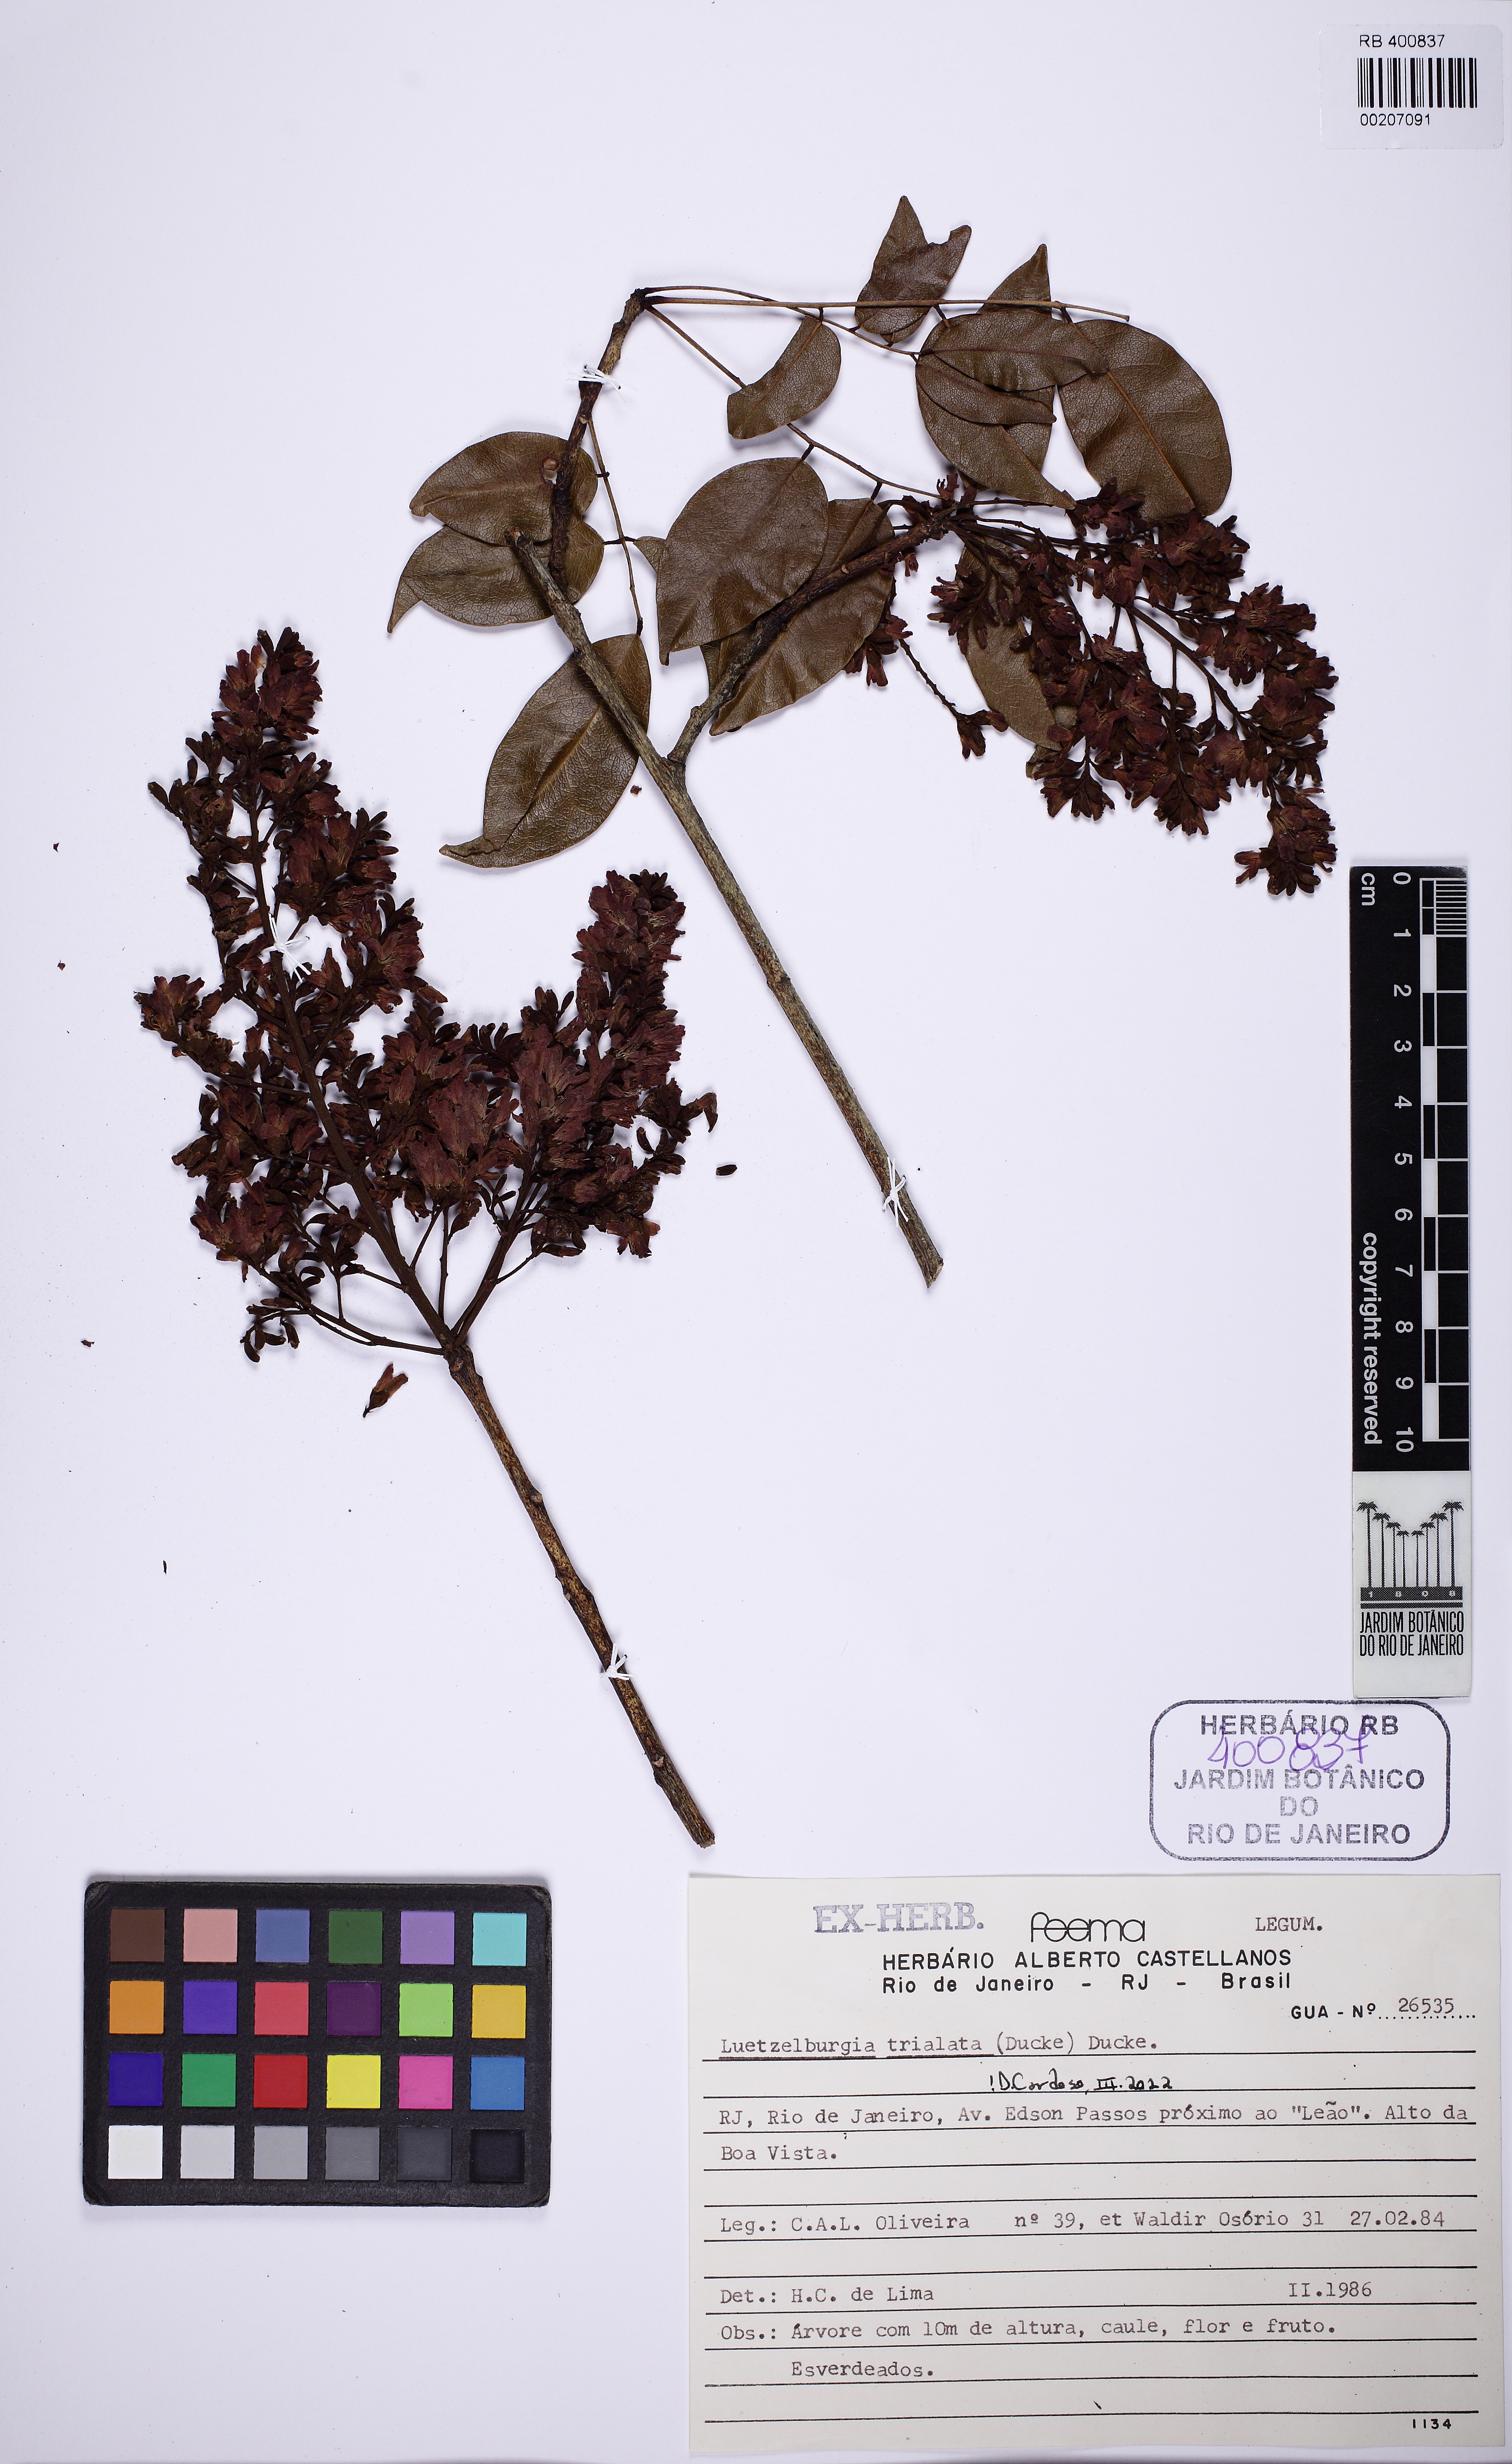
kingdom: Plantae
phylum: Tracheophyta
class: Magnoliopsida
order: Fabales
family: Fabaceae
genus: Luetzelburgia
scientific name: Luetzelburgia trialata
